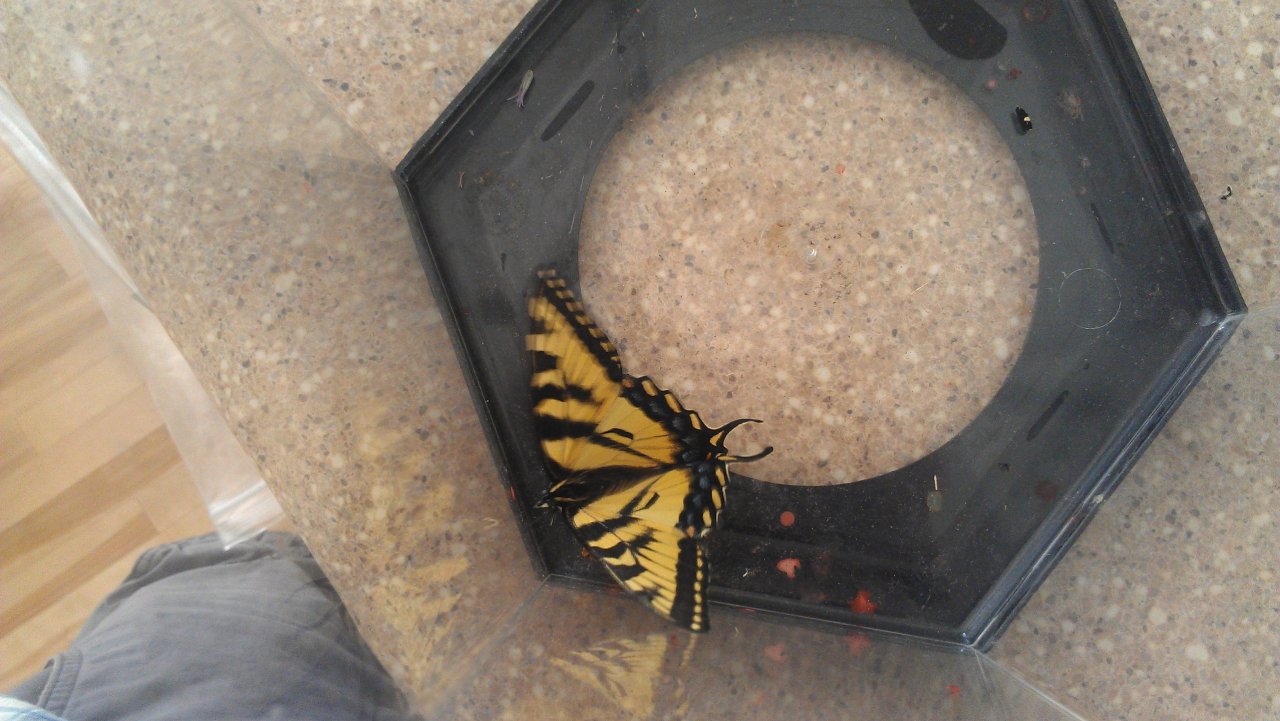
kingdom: Animalia
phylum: Arthropoda
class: Insecta
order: Lepidoptera
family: Papilionidae
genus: Pterourus
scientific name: Pterourus canadensis
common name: Canadian Tiger Swallowtail
